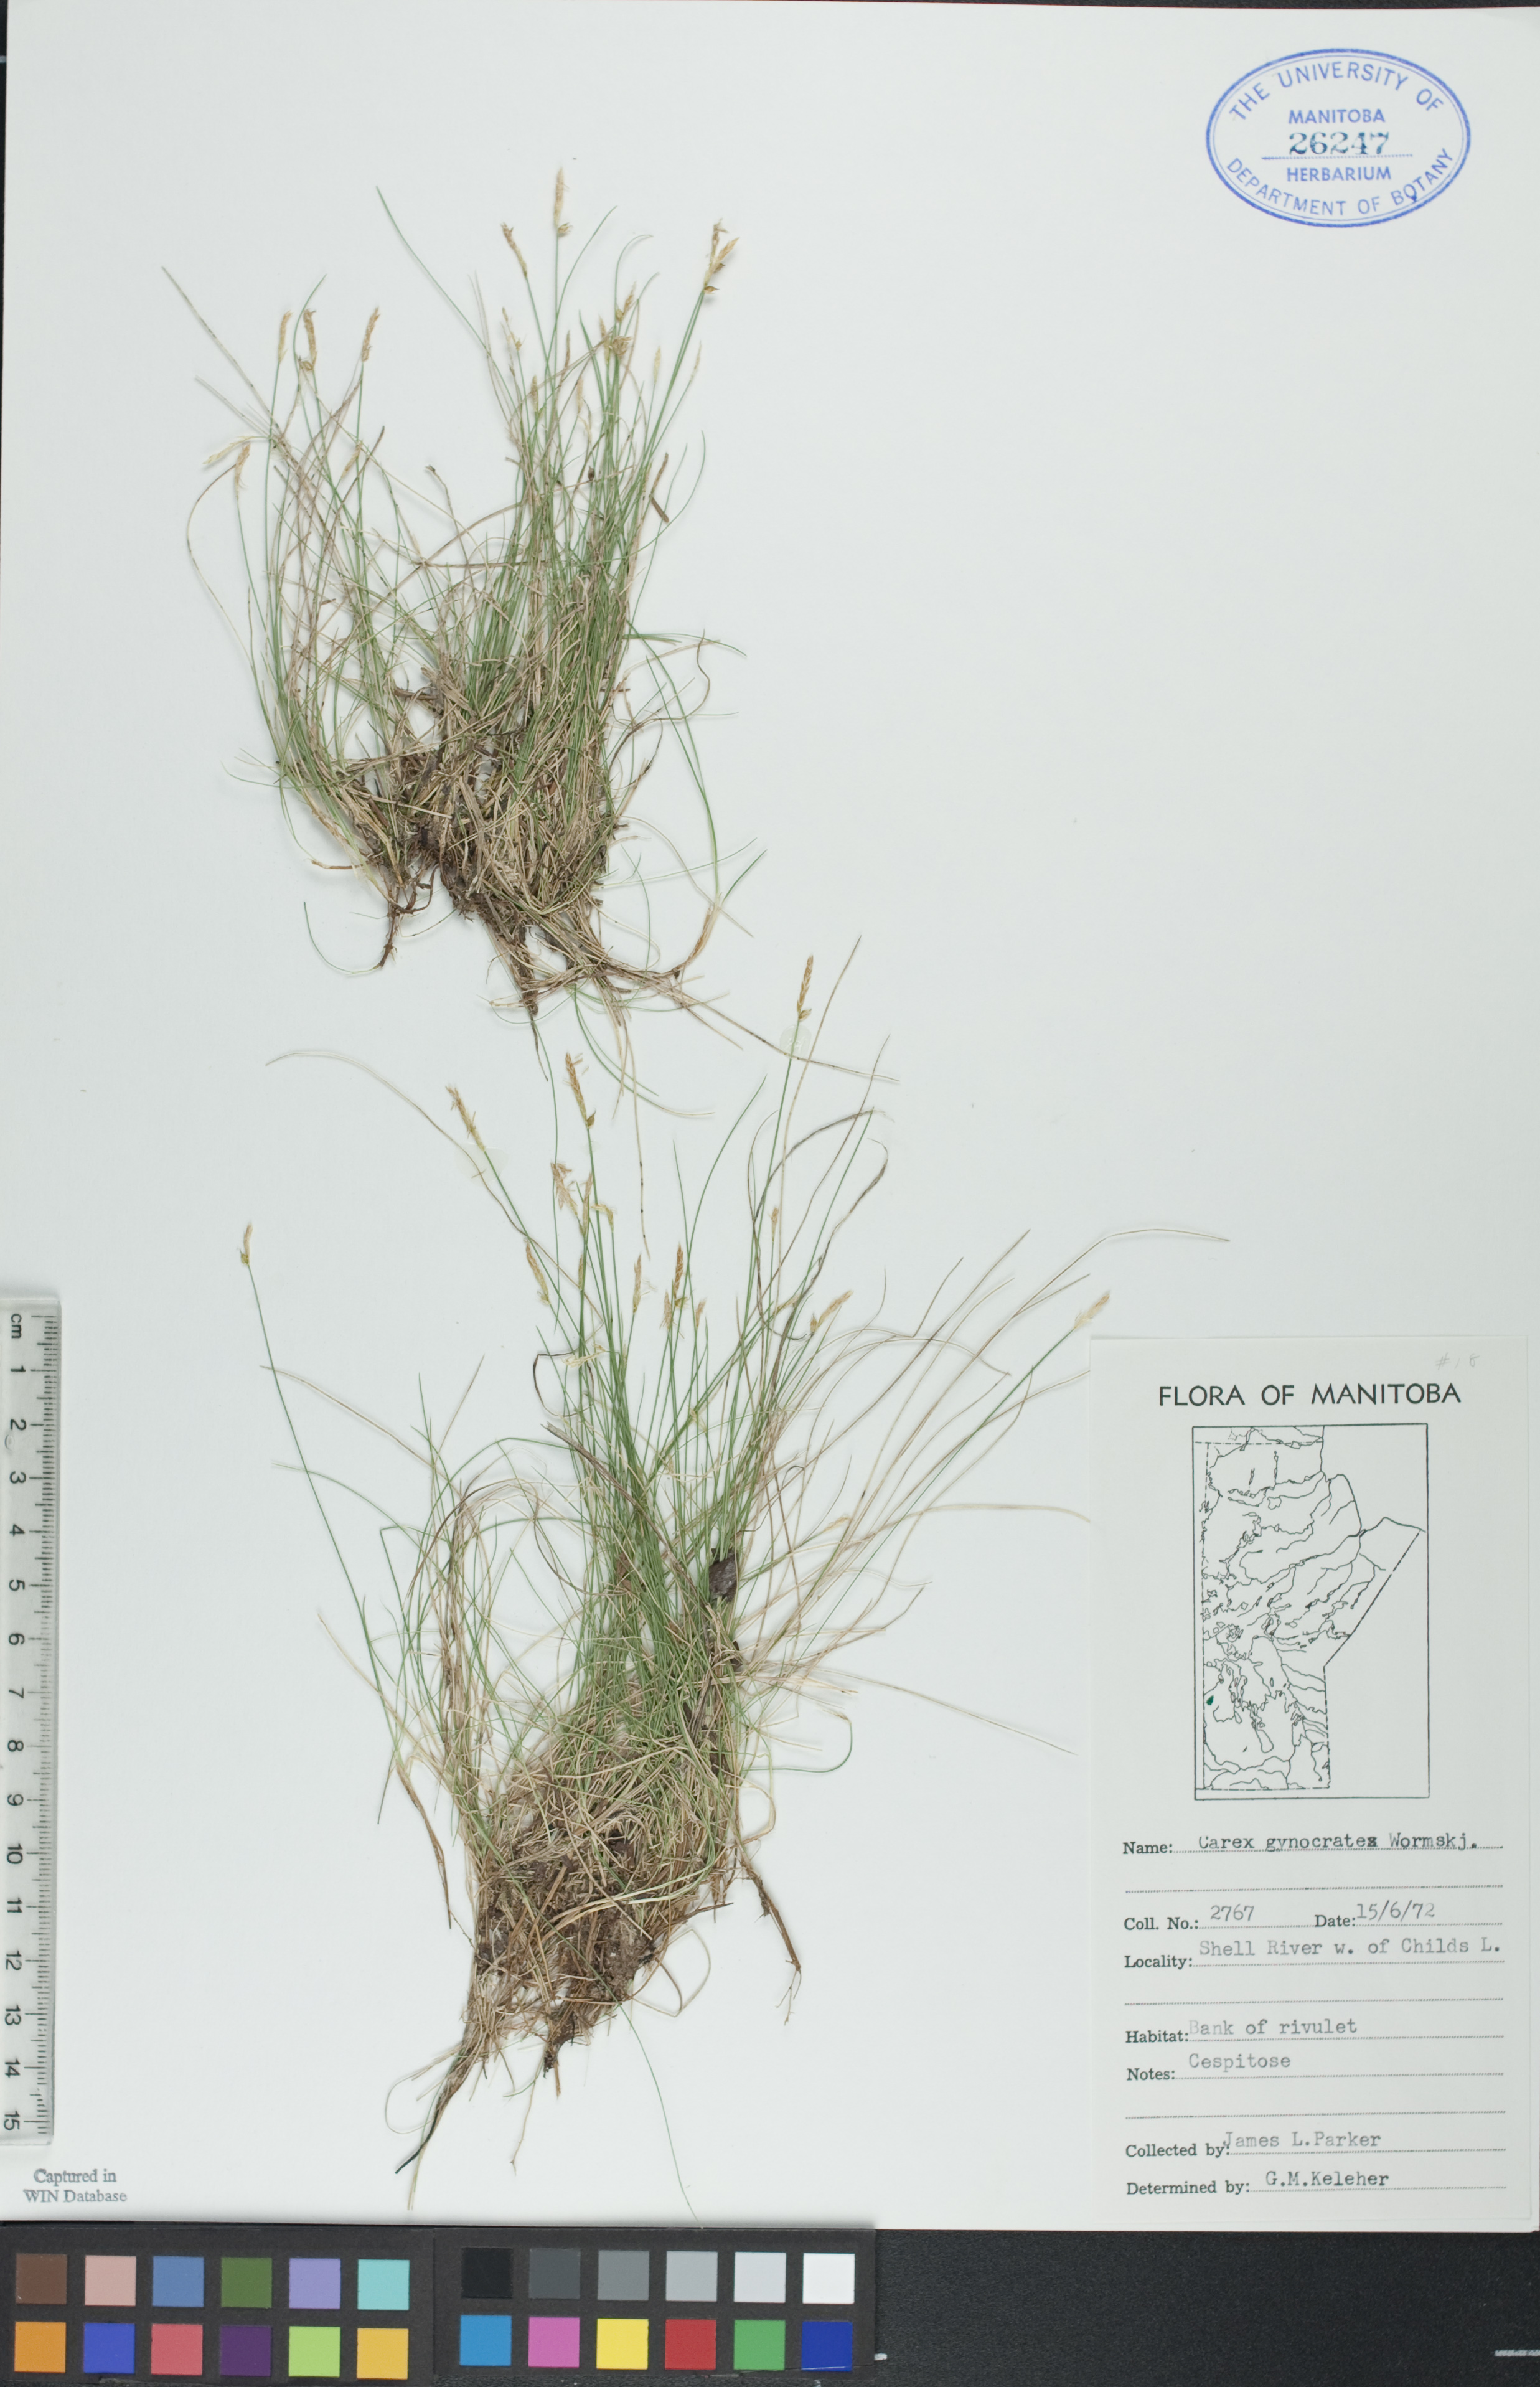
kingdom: Plantae
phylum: Tracheophyta
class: Liliopsida
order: Poales
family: Cyperaceae
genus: Carex
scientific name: Carex nardina
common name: Nard sedge
